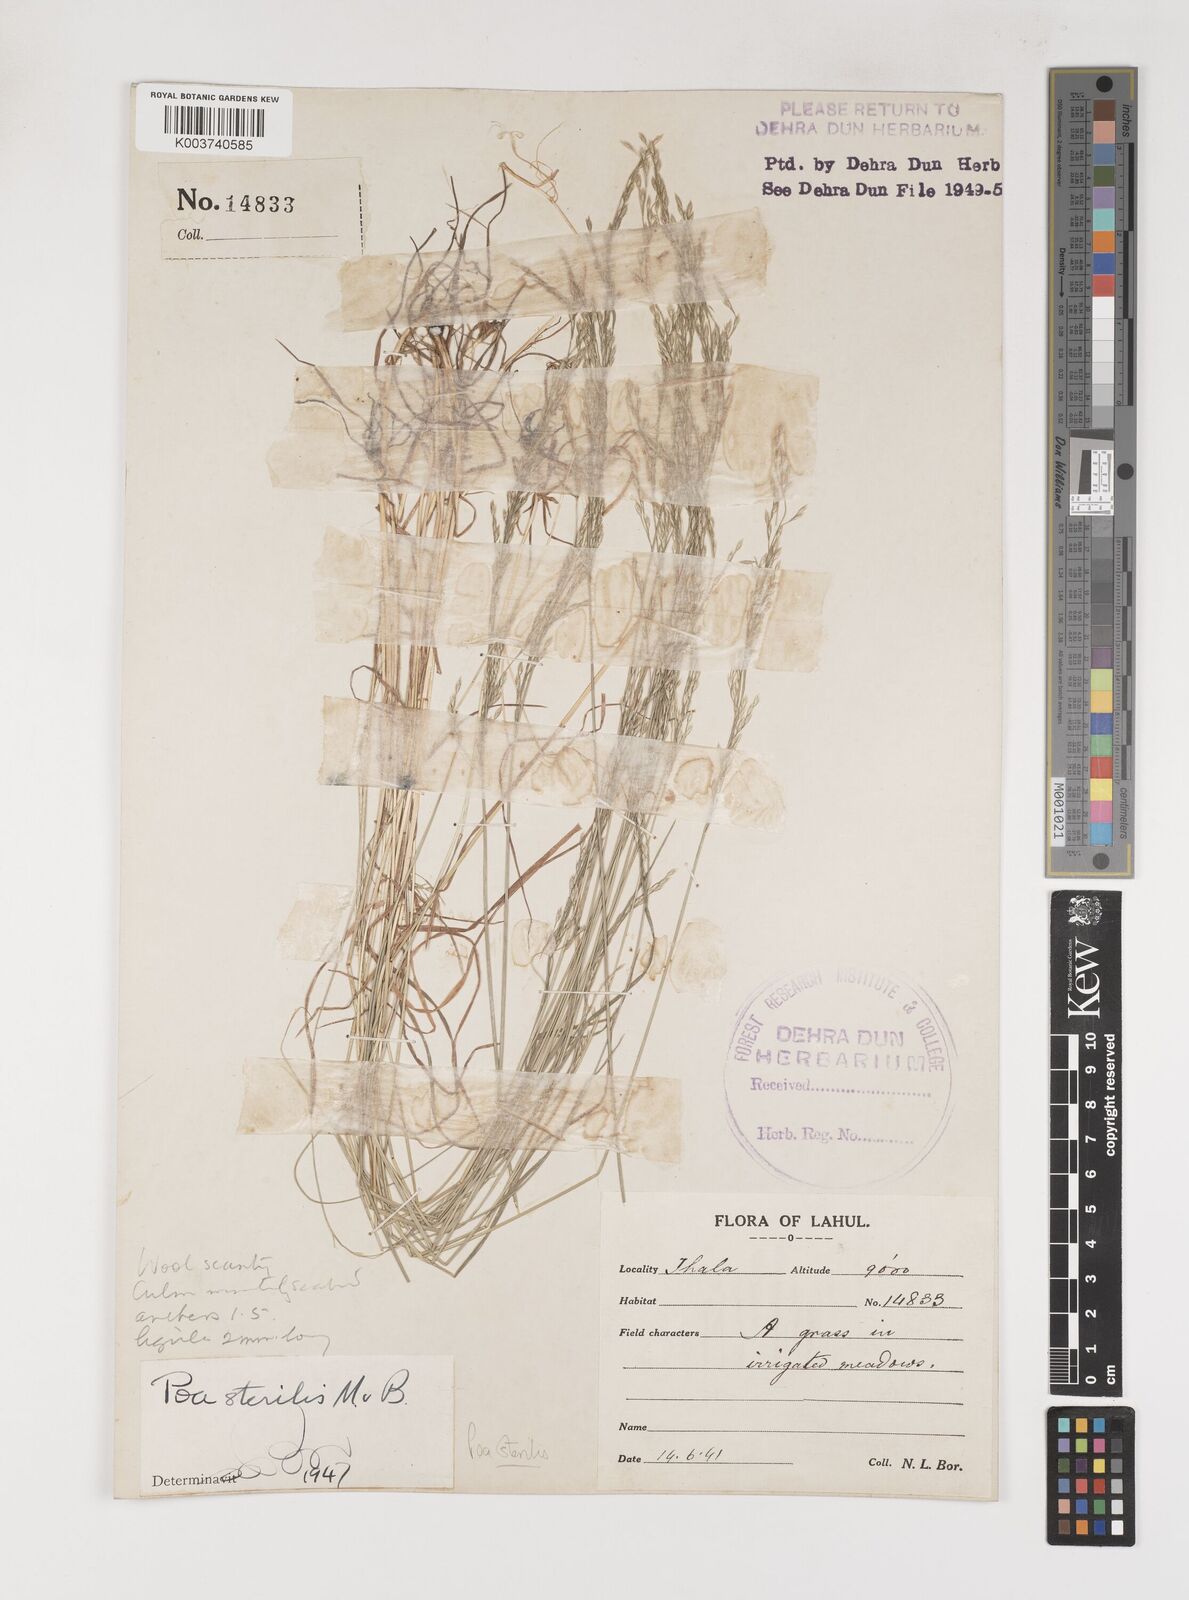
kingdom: Plantae
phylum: Tracheophyta
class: Liliopsida
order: Poales
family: Poaceae
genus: Poa
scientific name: Poa sterilis
